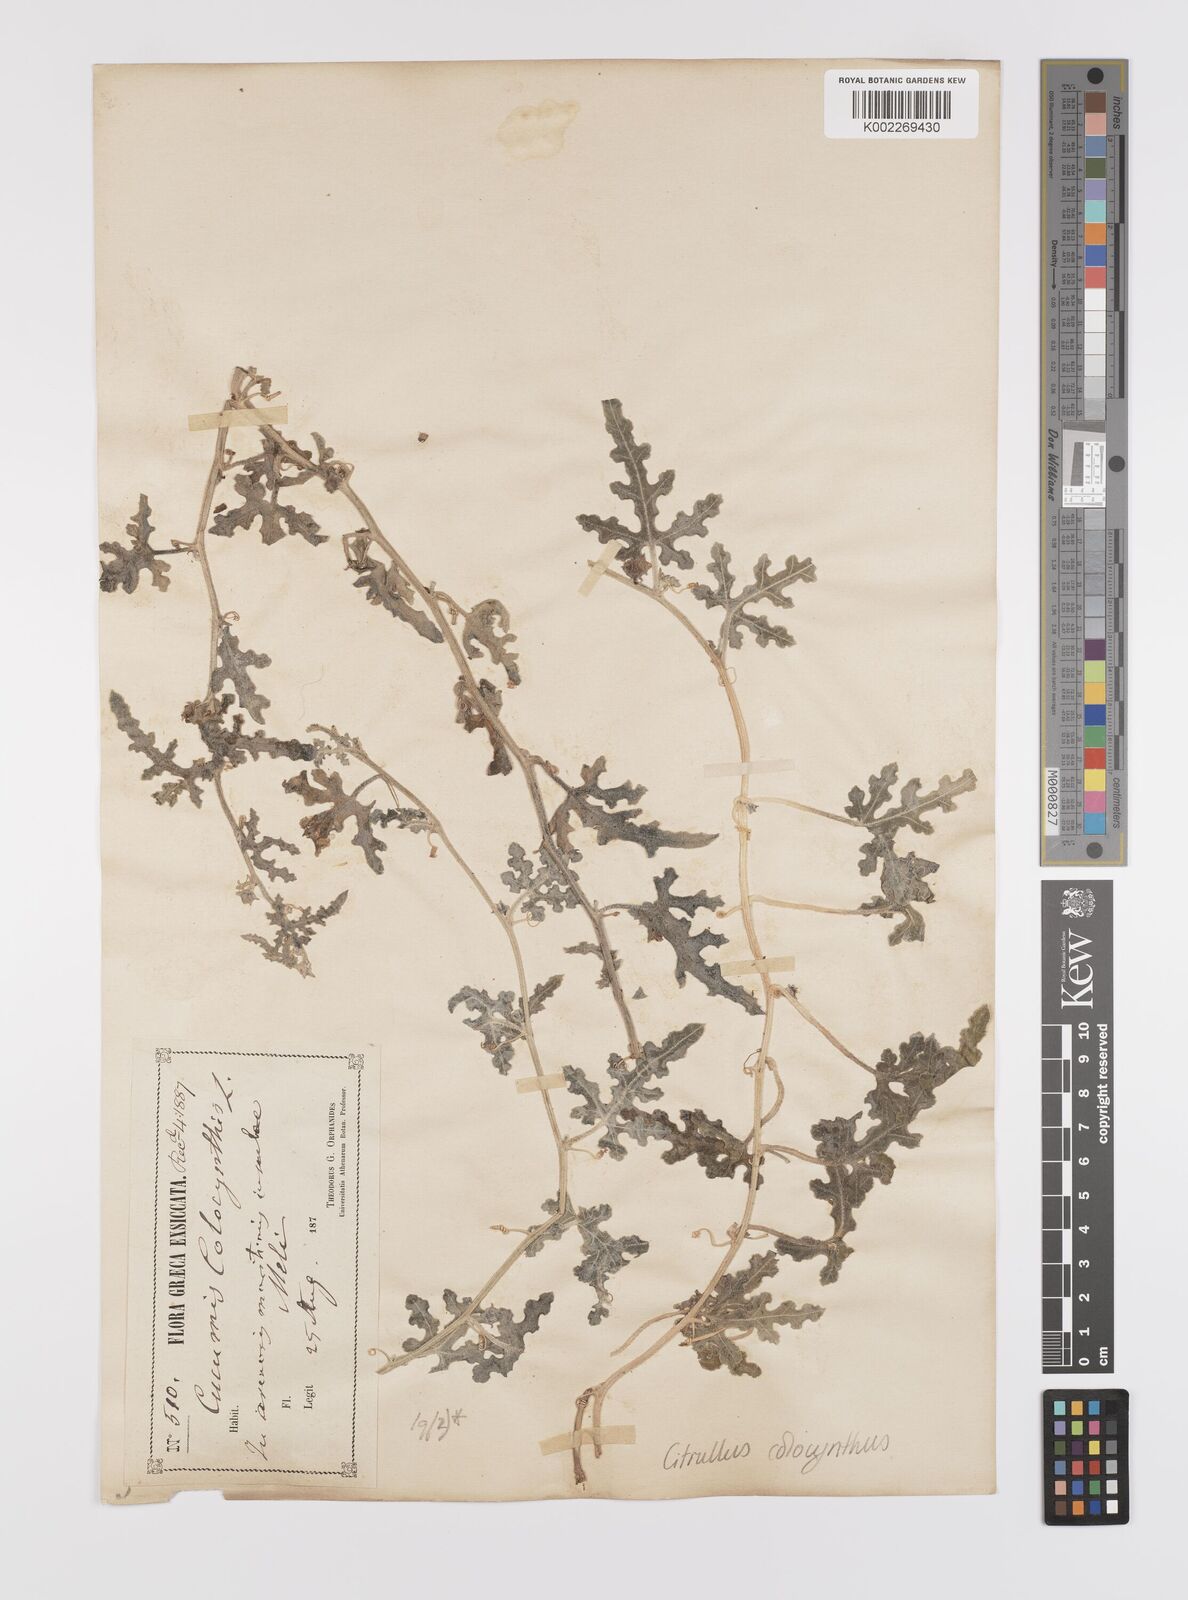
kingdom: Plantae
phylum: Tracheophyta
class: Magnoliopsida
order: Cucurbitales
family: Cucurbitaceae
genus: Citrullus
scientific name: Citrullus colocynthis
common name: Colocynth
